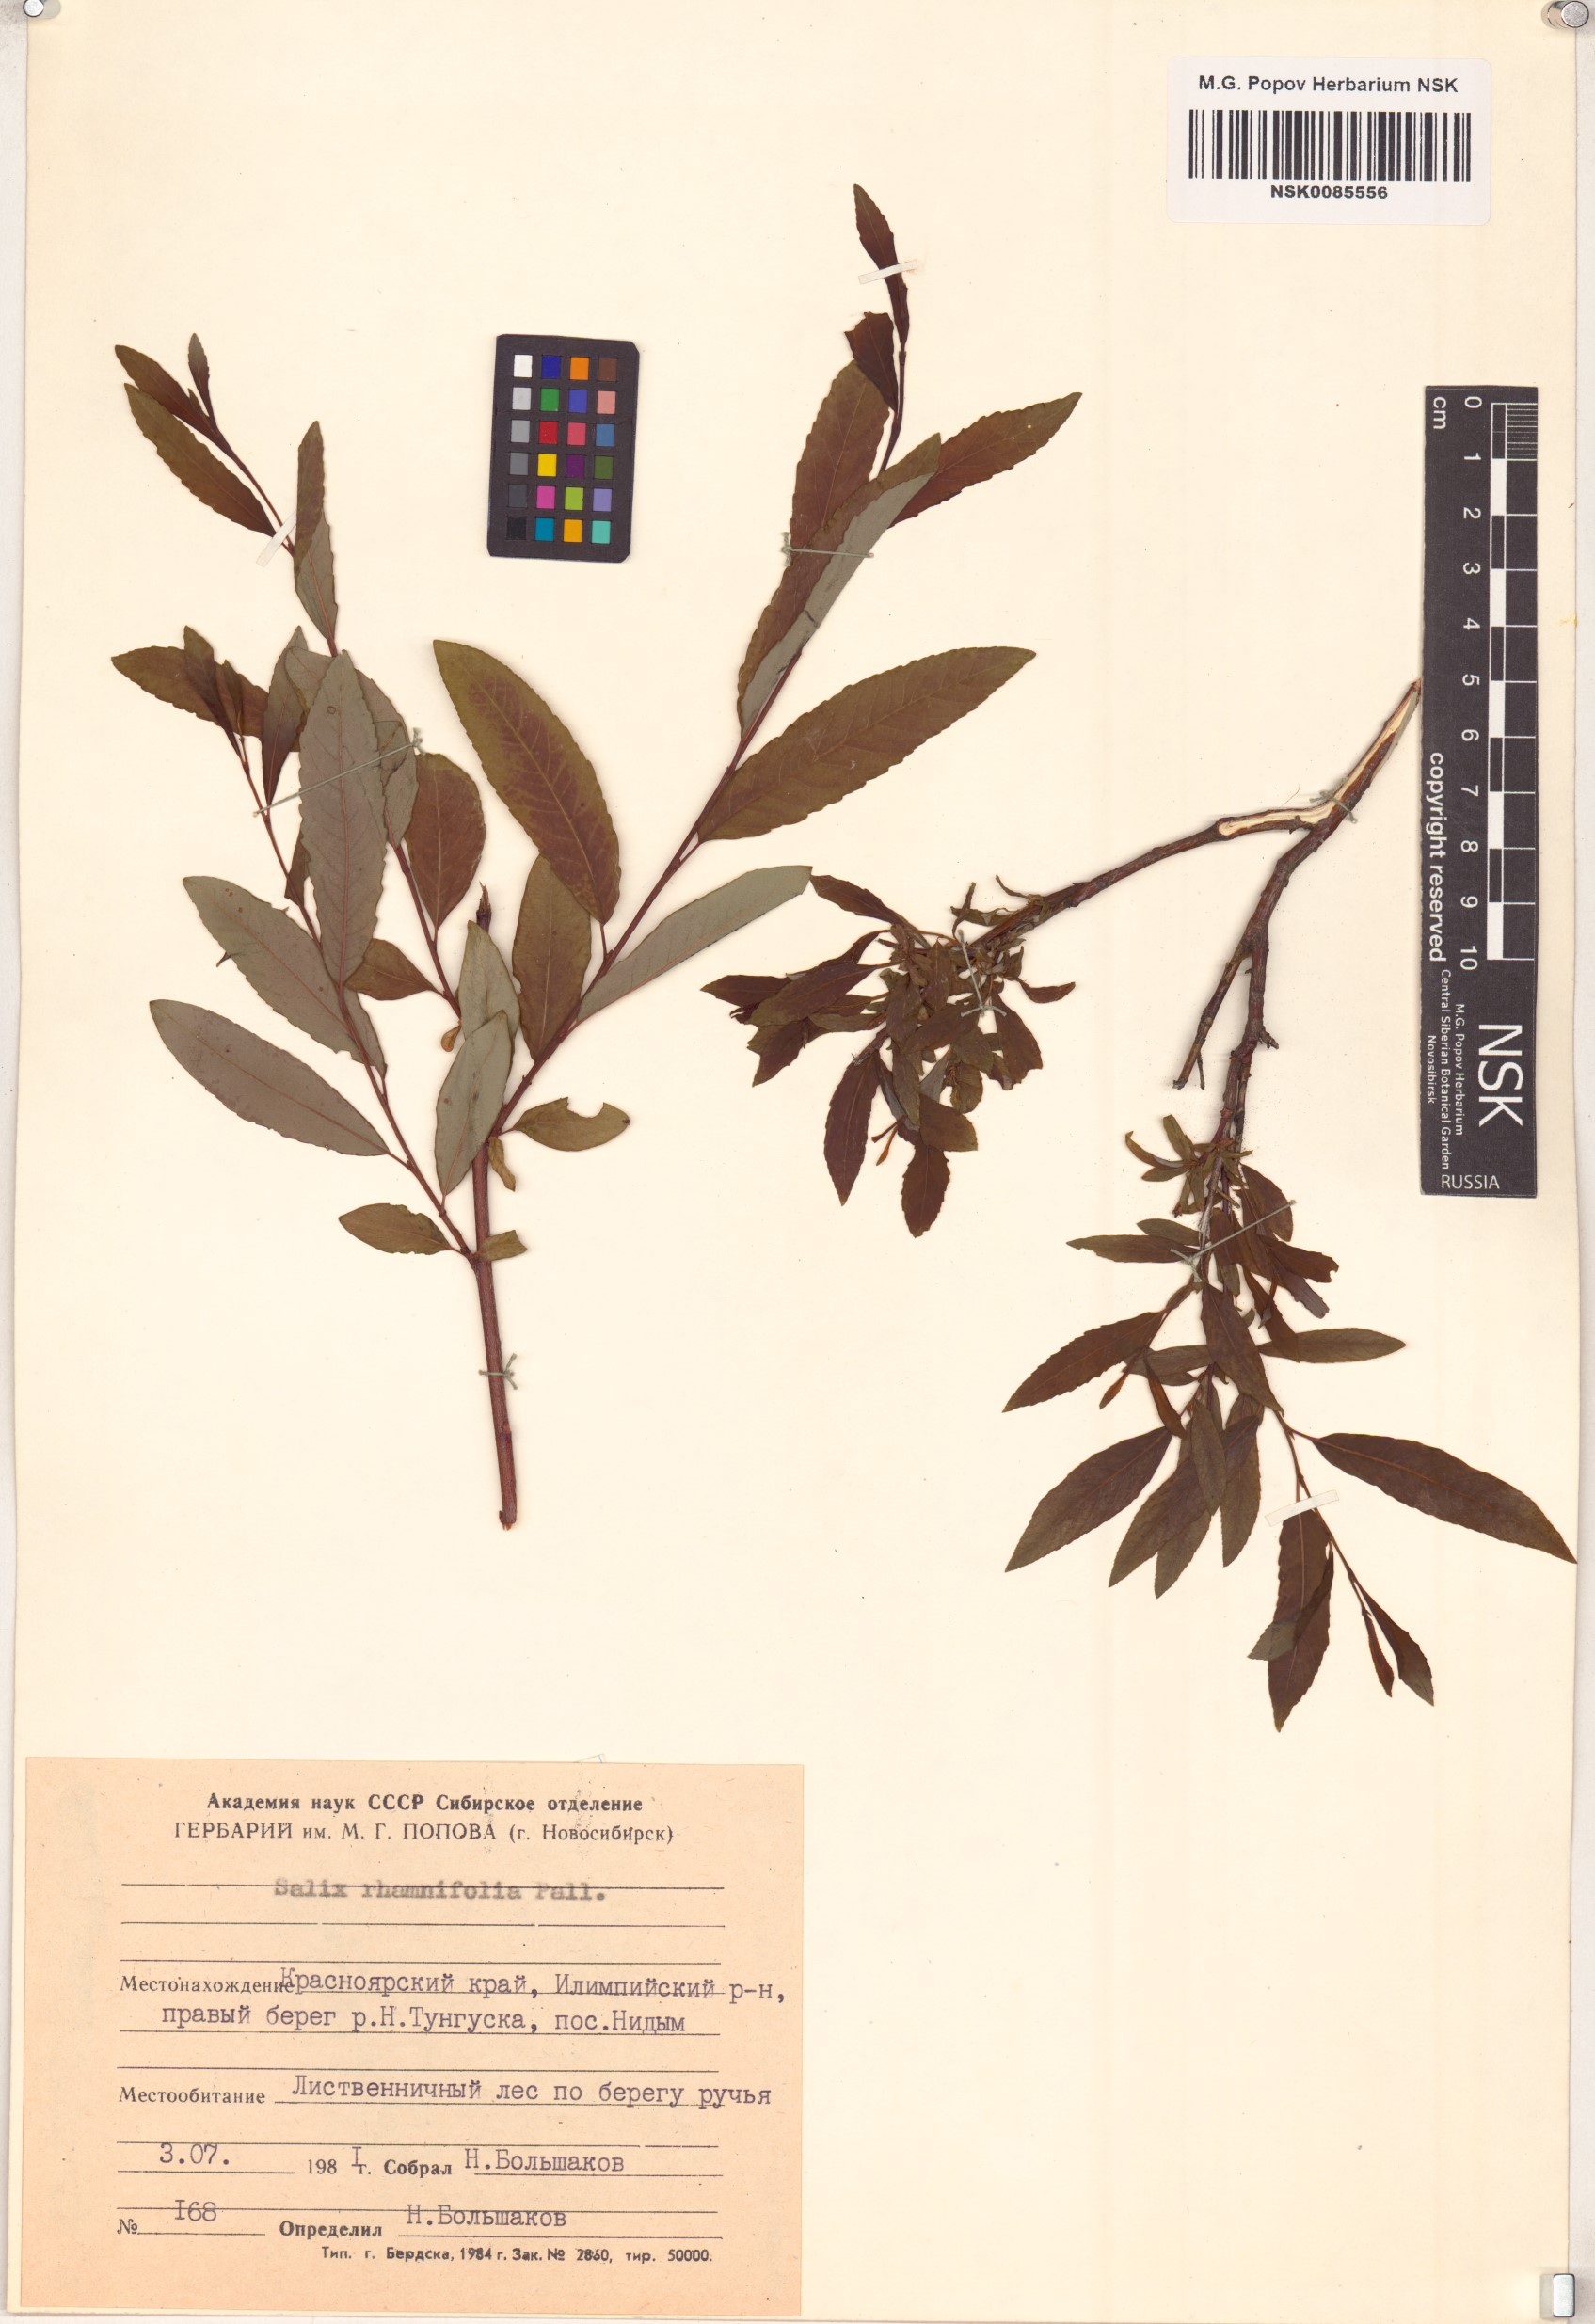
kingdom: Plantae
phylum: Tracheophyta
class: Magnoliopsida
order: Malpighiales
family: Salicaceae
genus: Salix
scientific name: Salix rhamnifolia
